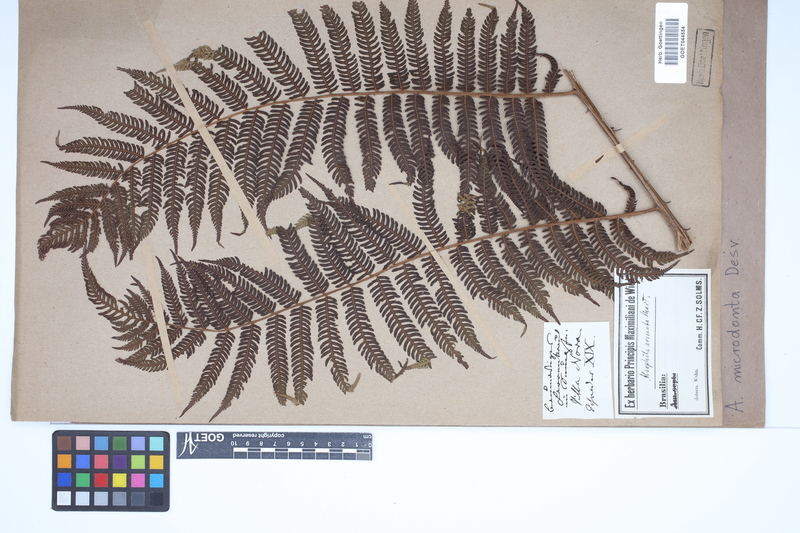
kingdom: Plantae
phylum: Tracheophyta
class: Polypodiopsida
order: Cyatheales
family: Cyatheaceae
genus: Cyathea
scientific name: Cyathea microdonta
